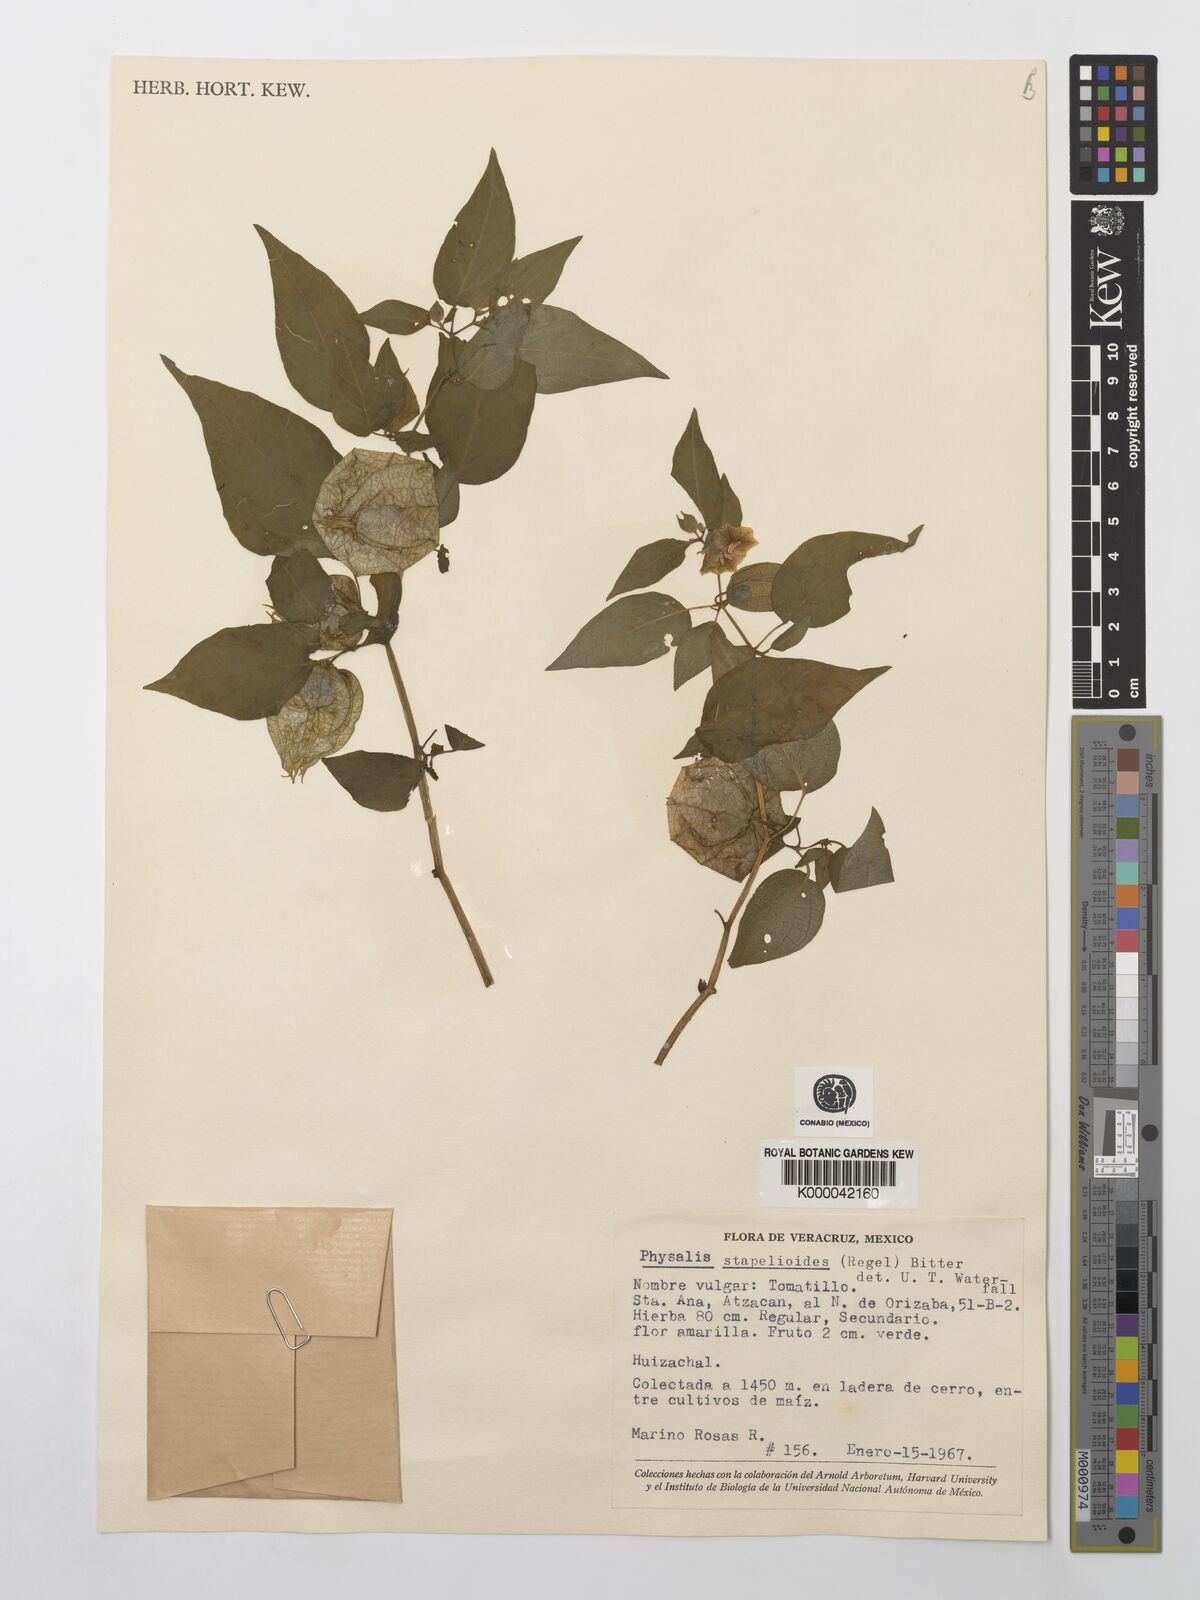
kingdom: Plantae
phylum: Tracheophyta
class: Magnoliopsida
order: Solanales
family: Solanaceae
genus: Physalis
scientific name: Physalis stapelioides
